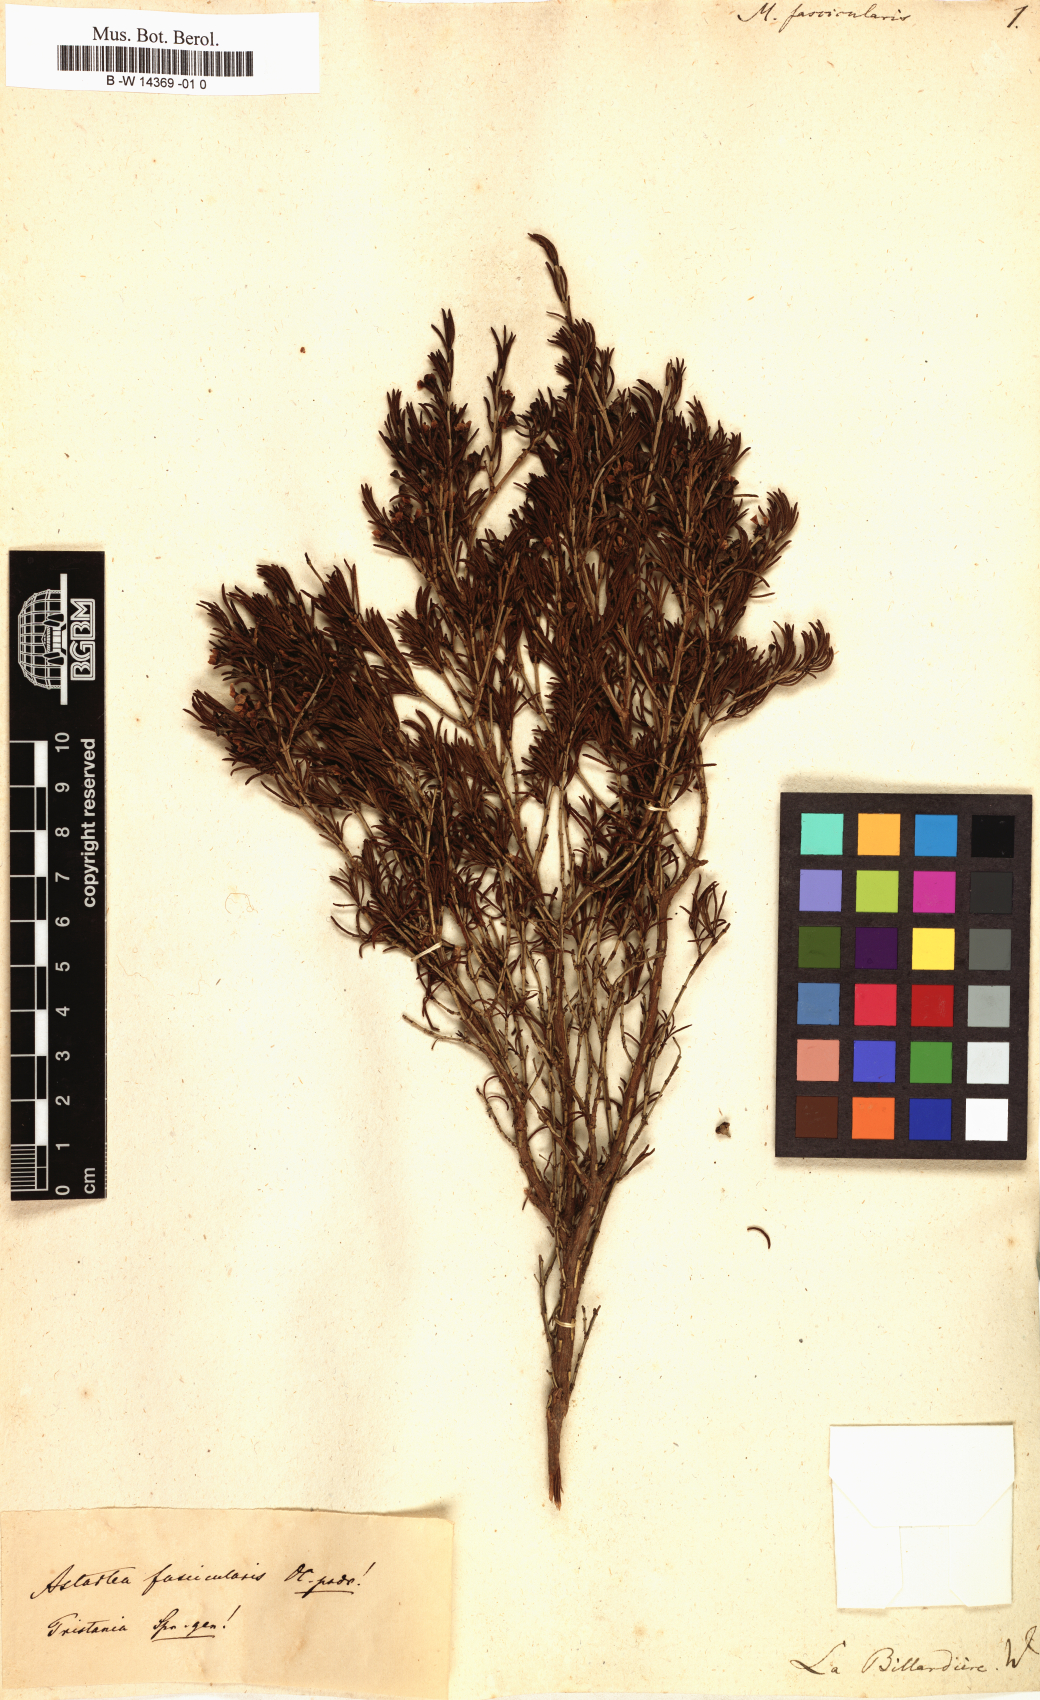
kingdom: Plantae
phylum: Tracheophyta
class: Magnoliopsida
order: Myrtales
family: Myrtaceae
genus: Astartea
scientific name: Astartea fascicularis
